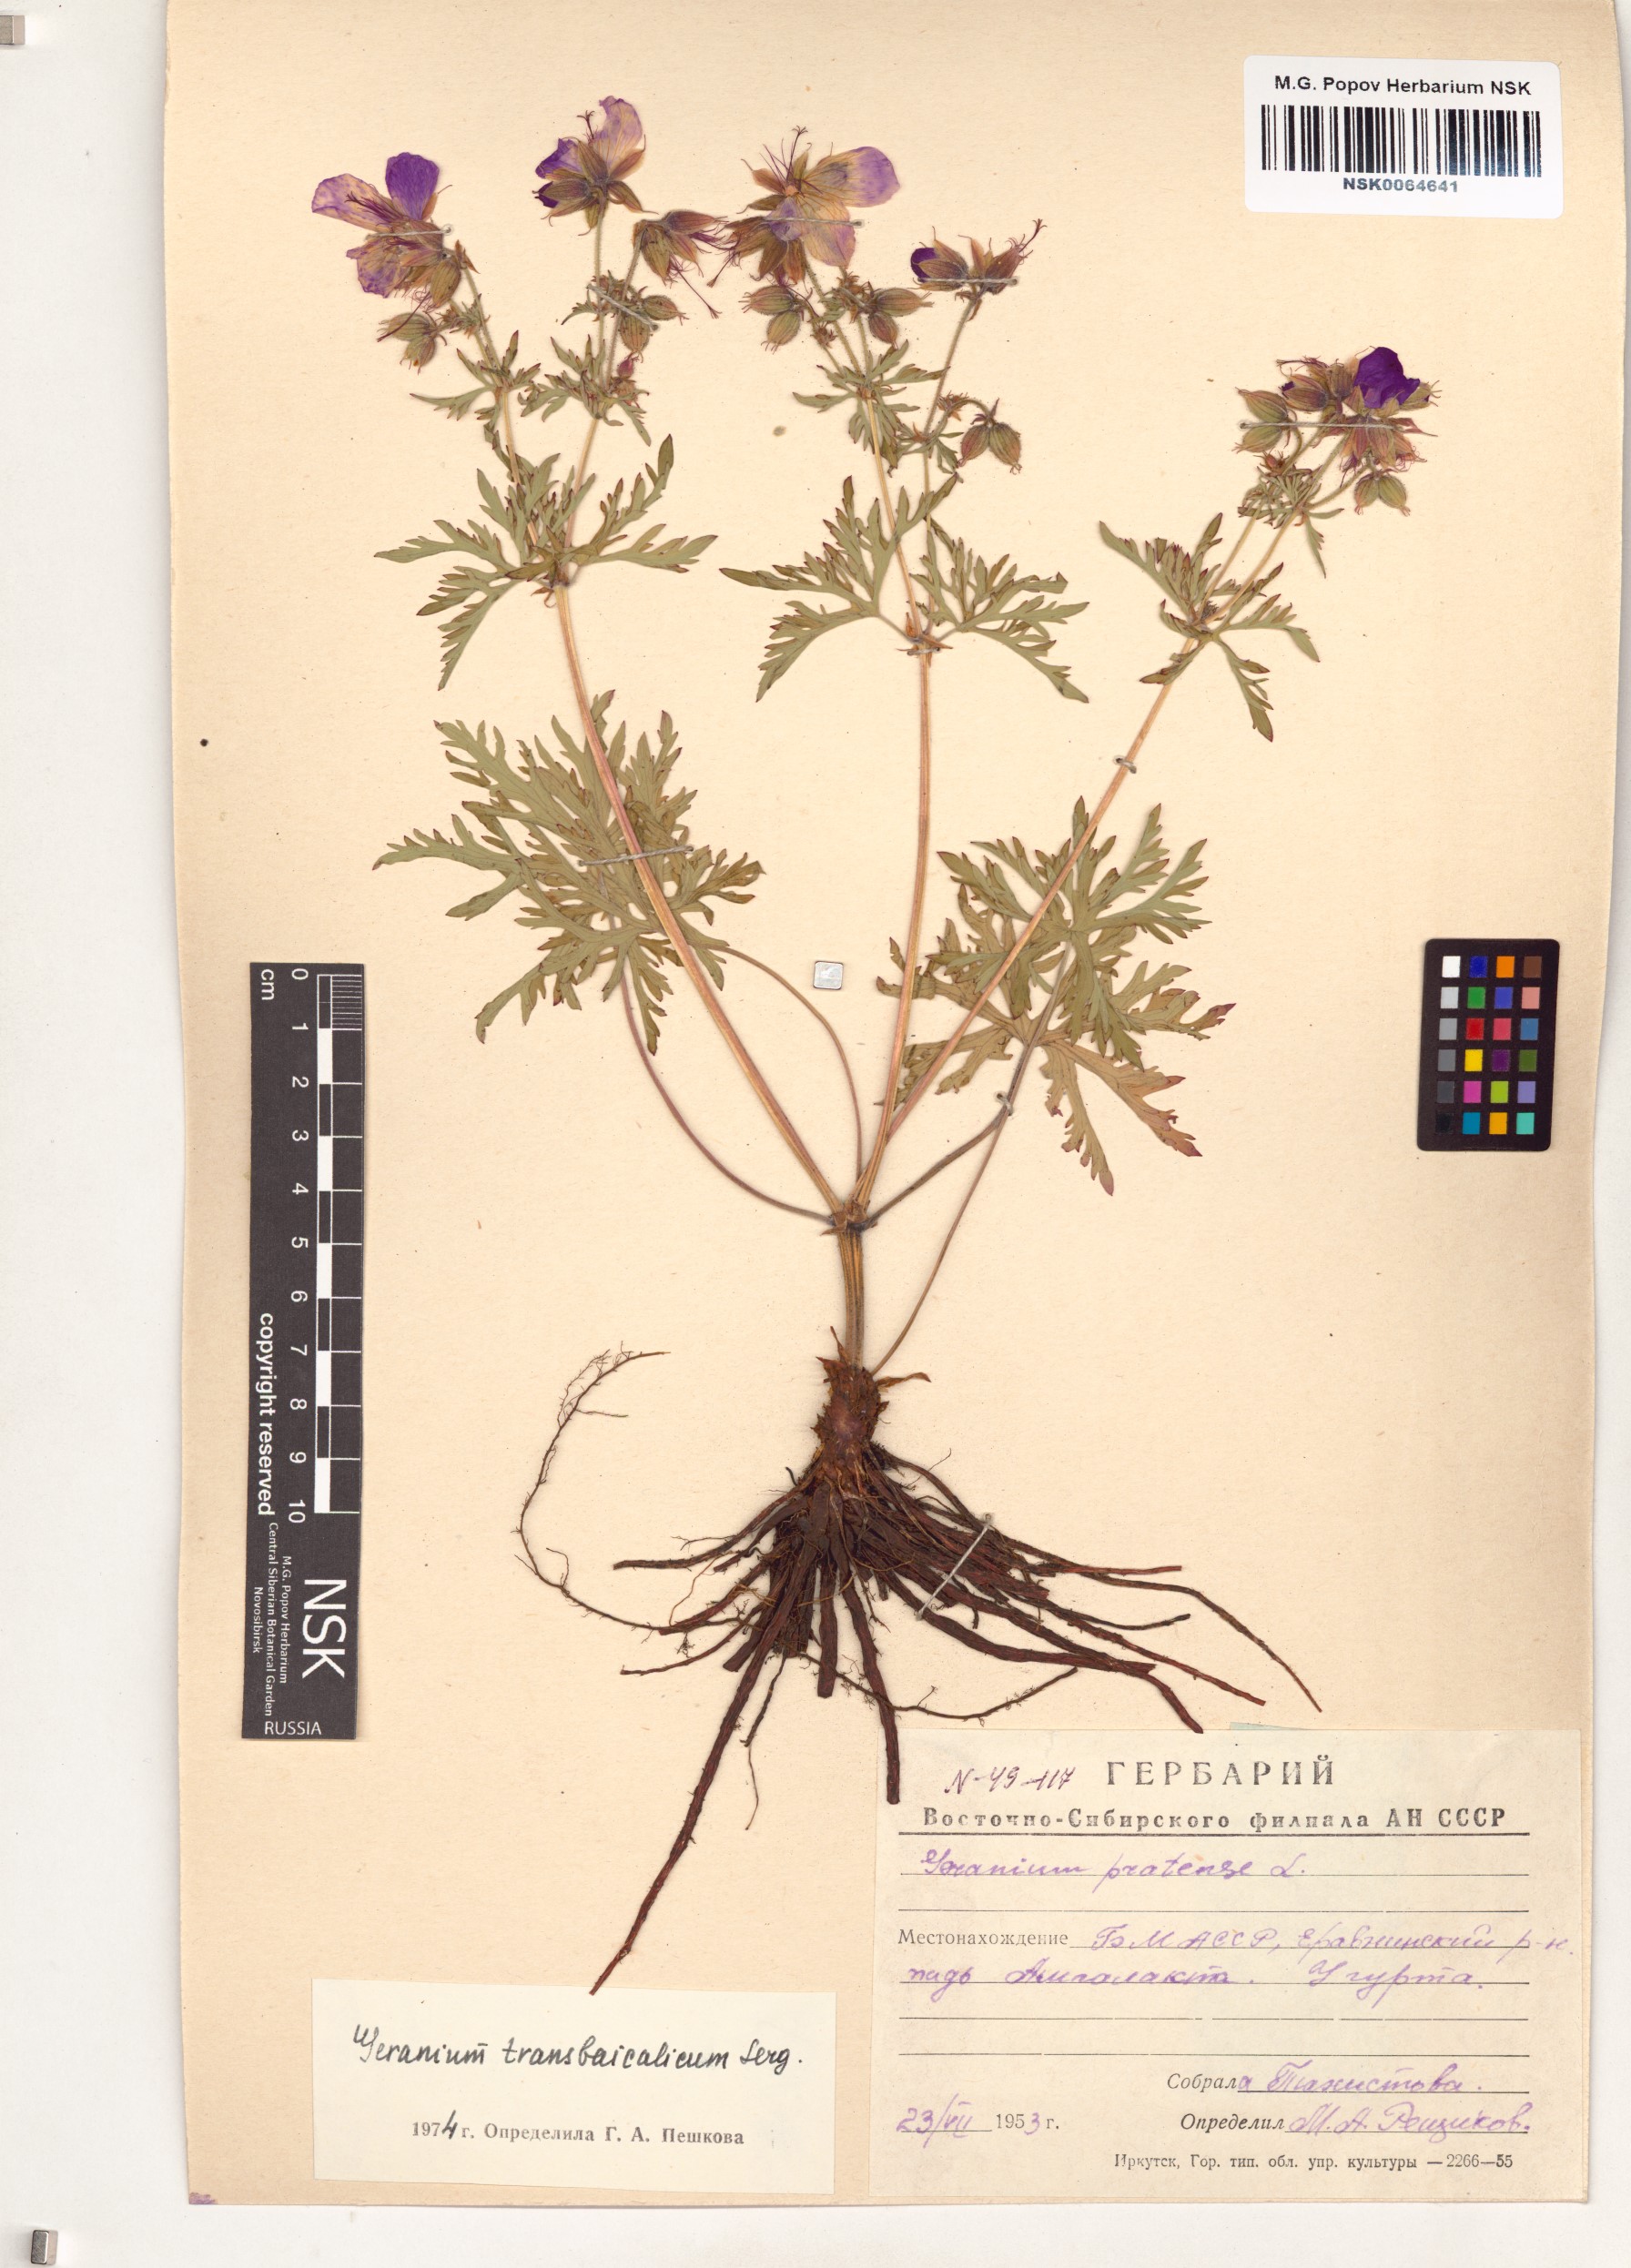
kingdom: Plantae
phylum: Tracheophyta
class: Magnoliopsida
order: Geraniales
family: Geraniaceae
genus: Geranium
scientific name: Geranium pratense
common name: Meadow crane's-bill
